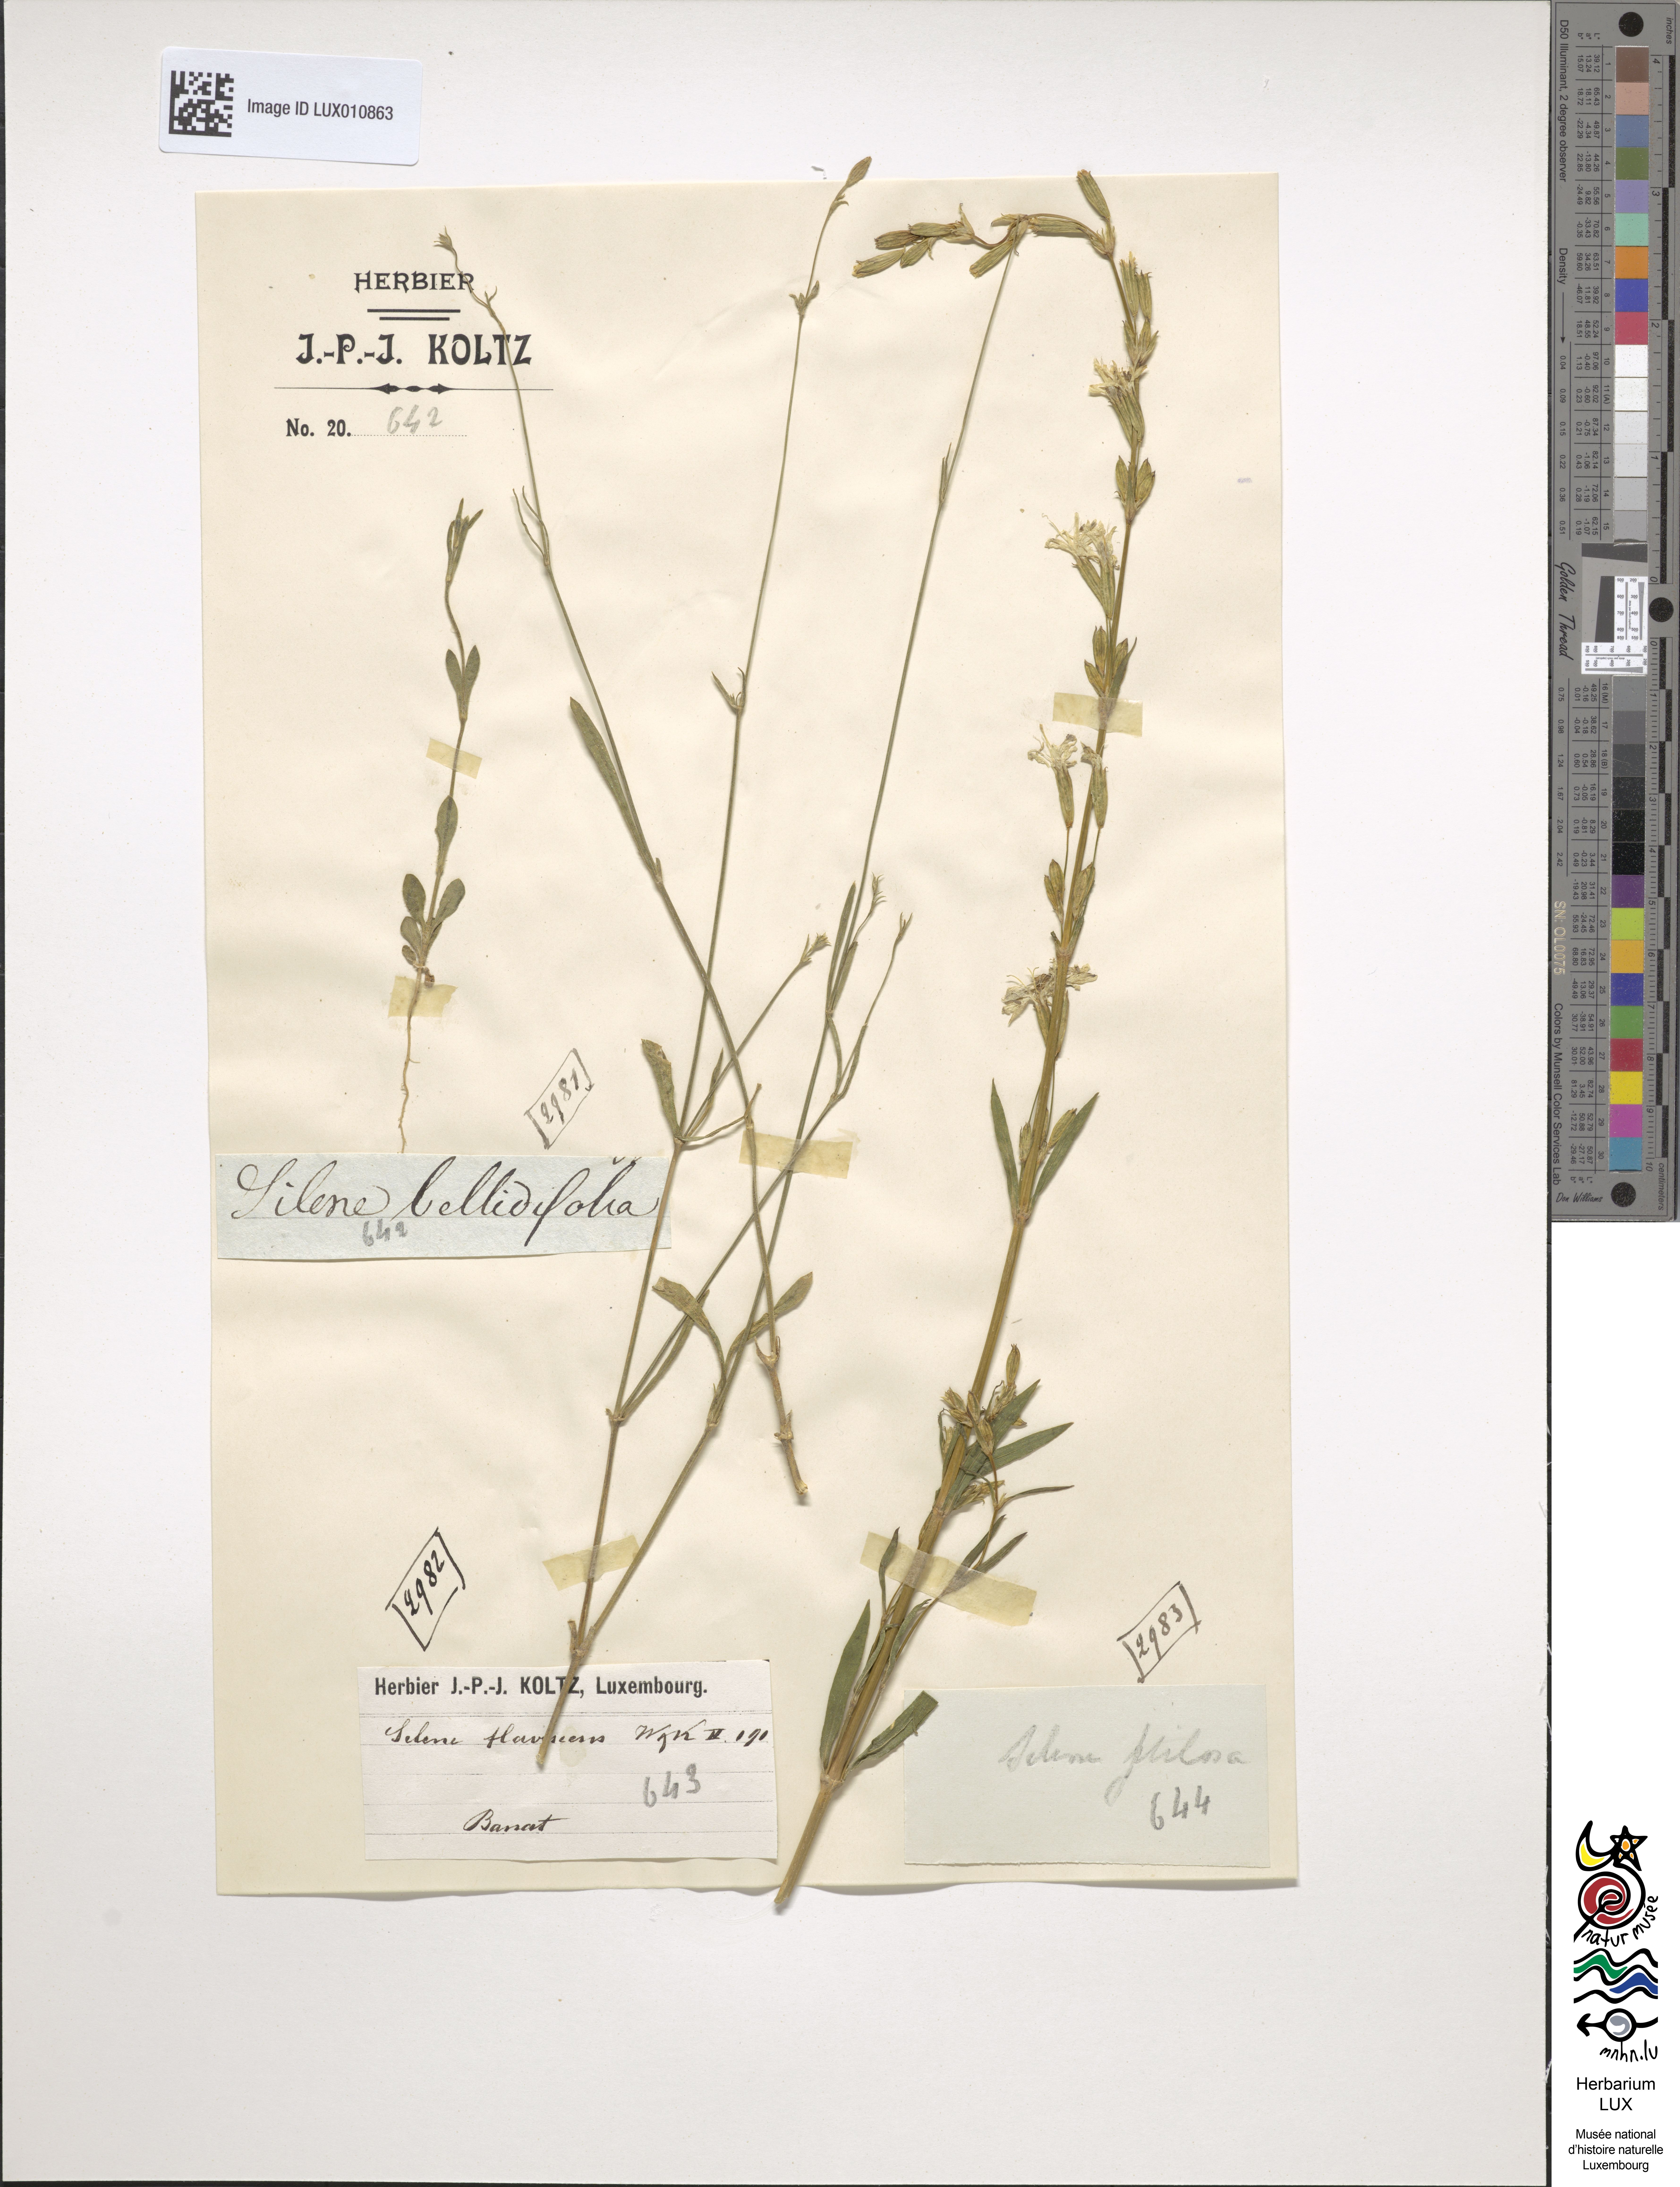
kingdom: Plantae
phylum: Tracheophyta
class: Magnoliopsida
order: Caryophyllales
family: Caryophyllaceae
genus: Silene
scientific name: Silene
